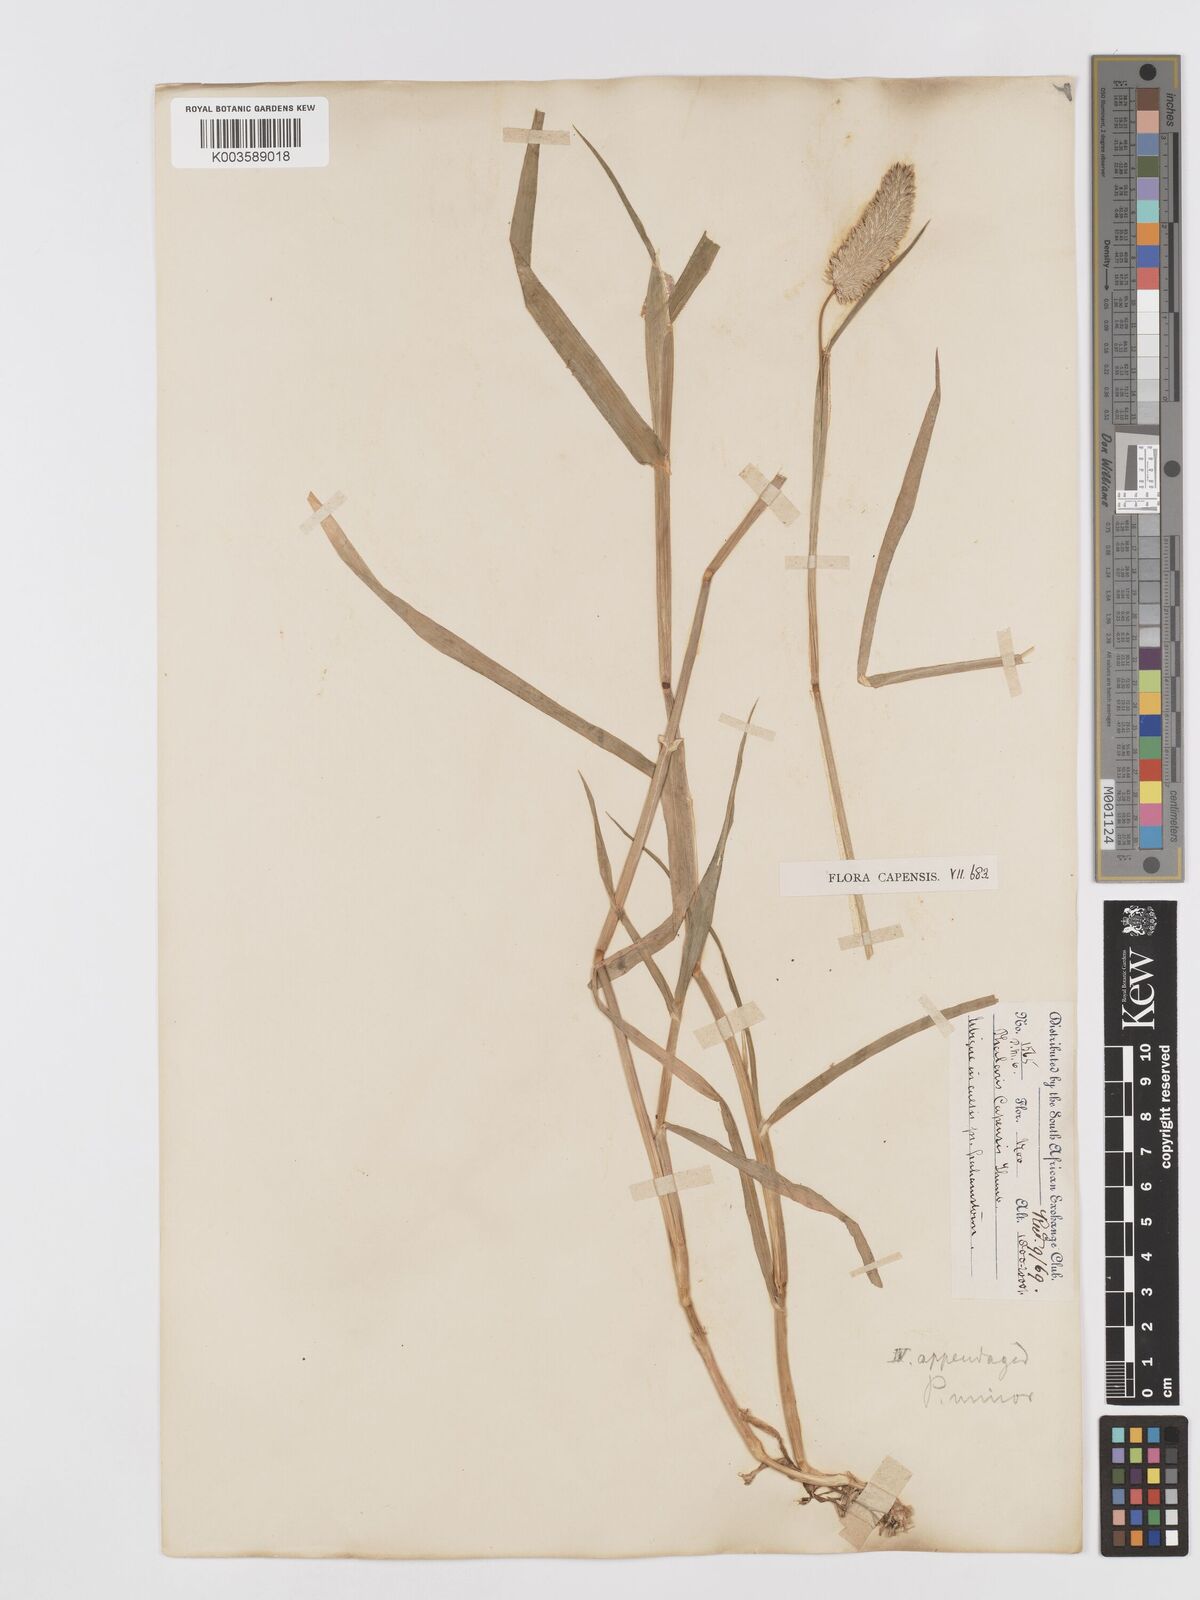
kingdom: Plantae
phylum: Tracheophyta
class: Liliopsida
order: Poales
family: Poaceae
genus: Phalaris
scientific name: Phalaris minor
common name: Littleseed canarygrass
